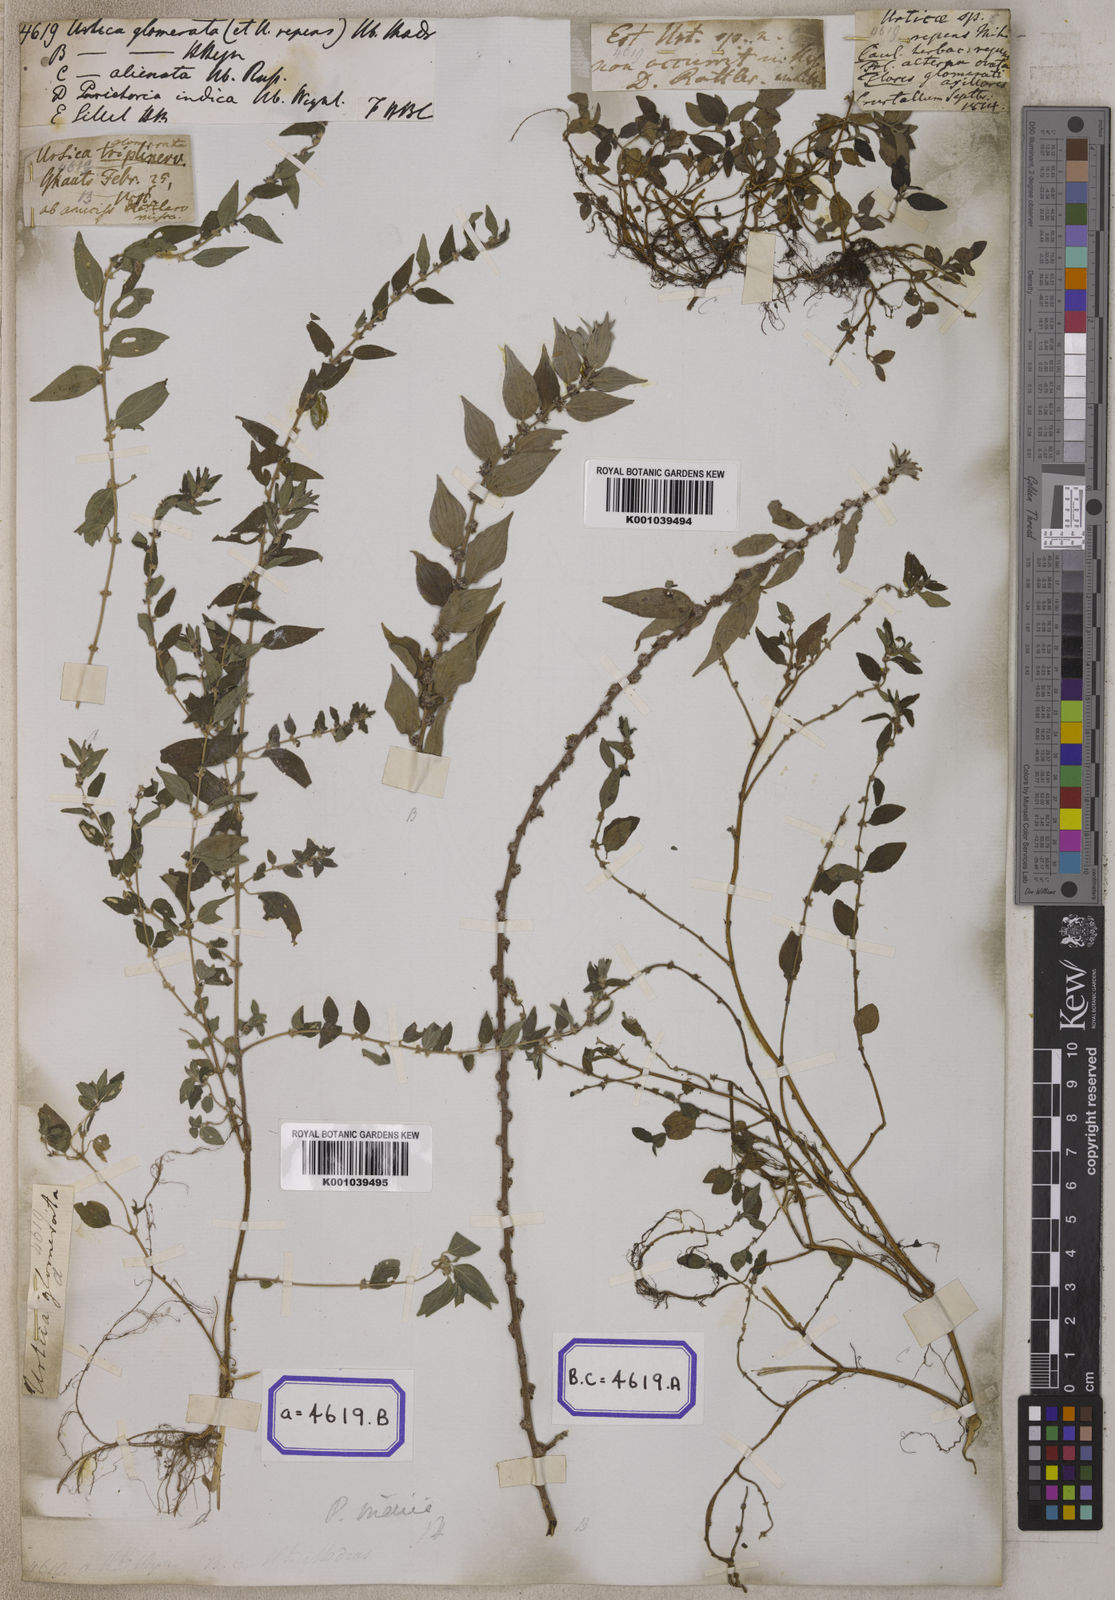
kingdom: Plantae
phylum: Tracheophyta
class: Magnoliopsida
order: Rosales
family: Urticaceae
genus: Pouzolzia
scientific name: Pouzolzia zeylanica
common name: Graceful pouzolzsbush
